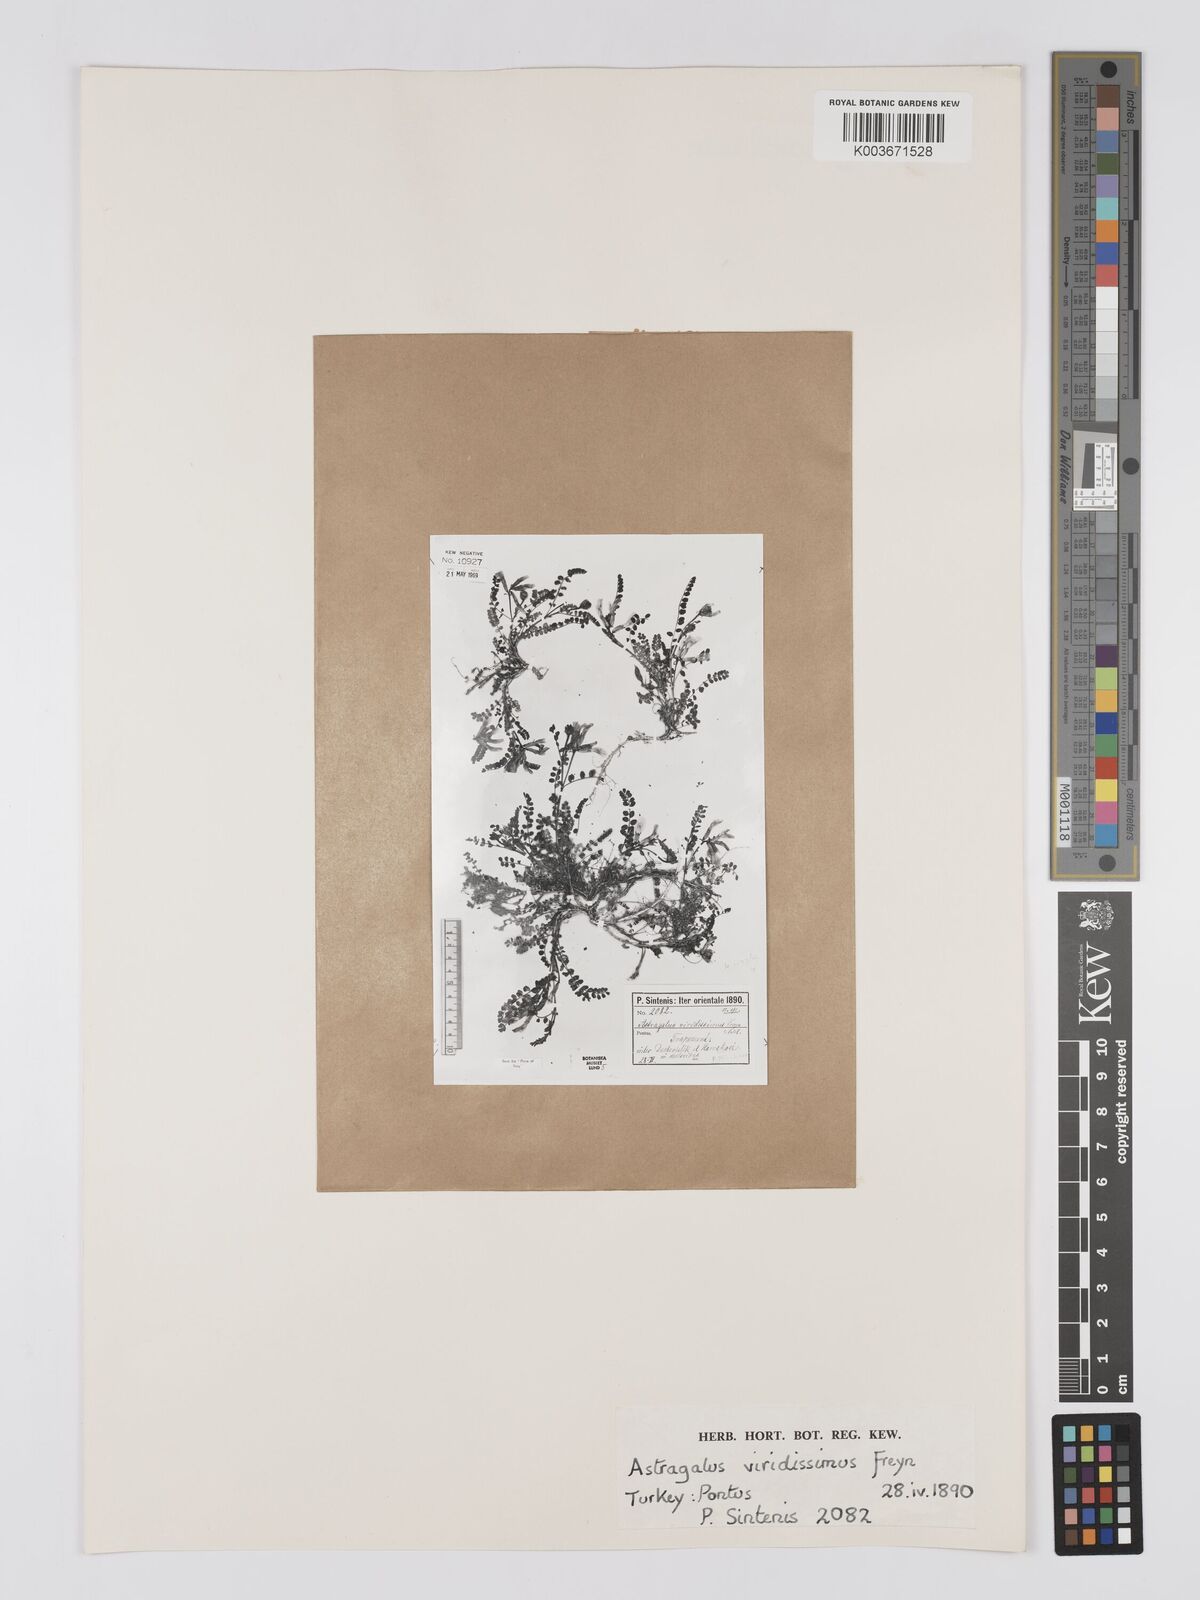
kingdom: Plantae
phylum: Tracheophyta
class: Magnoliopsida
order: Fabales
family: Fabaceae
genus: Astragalus
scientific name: Astragalus viridissimus
